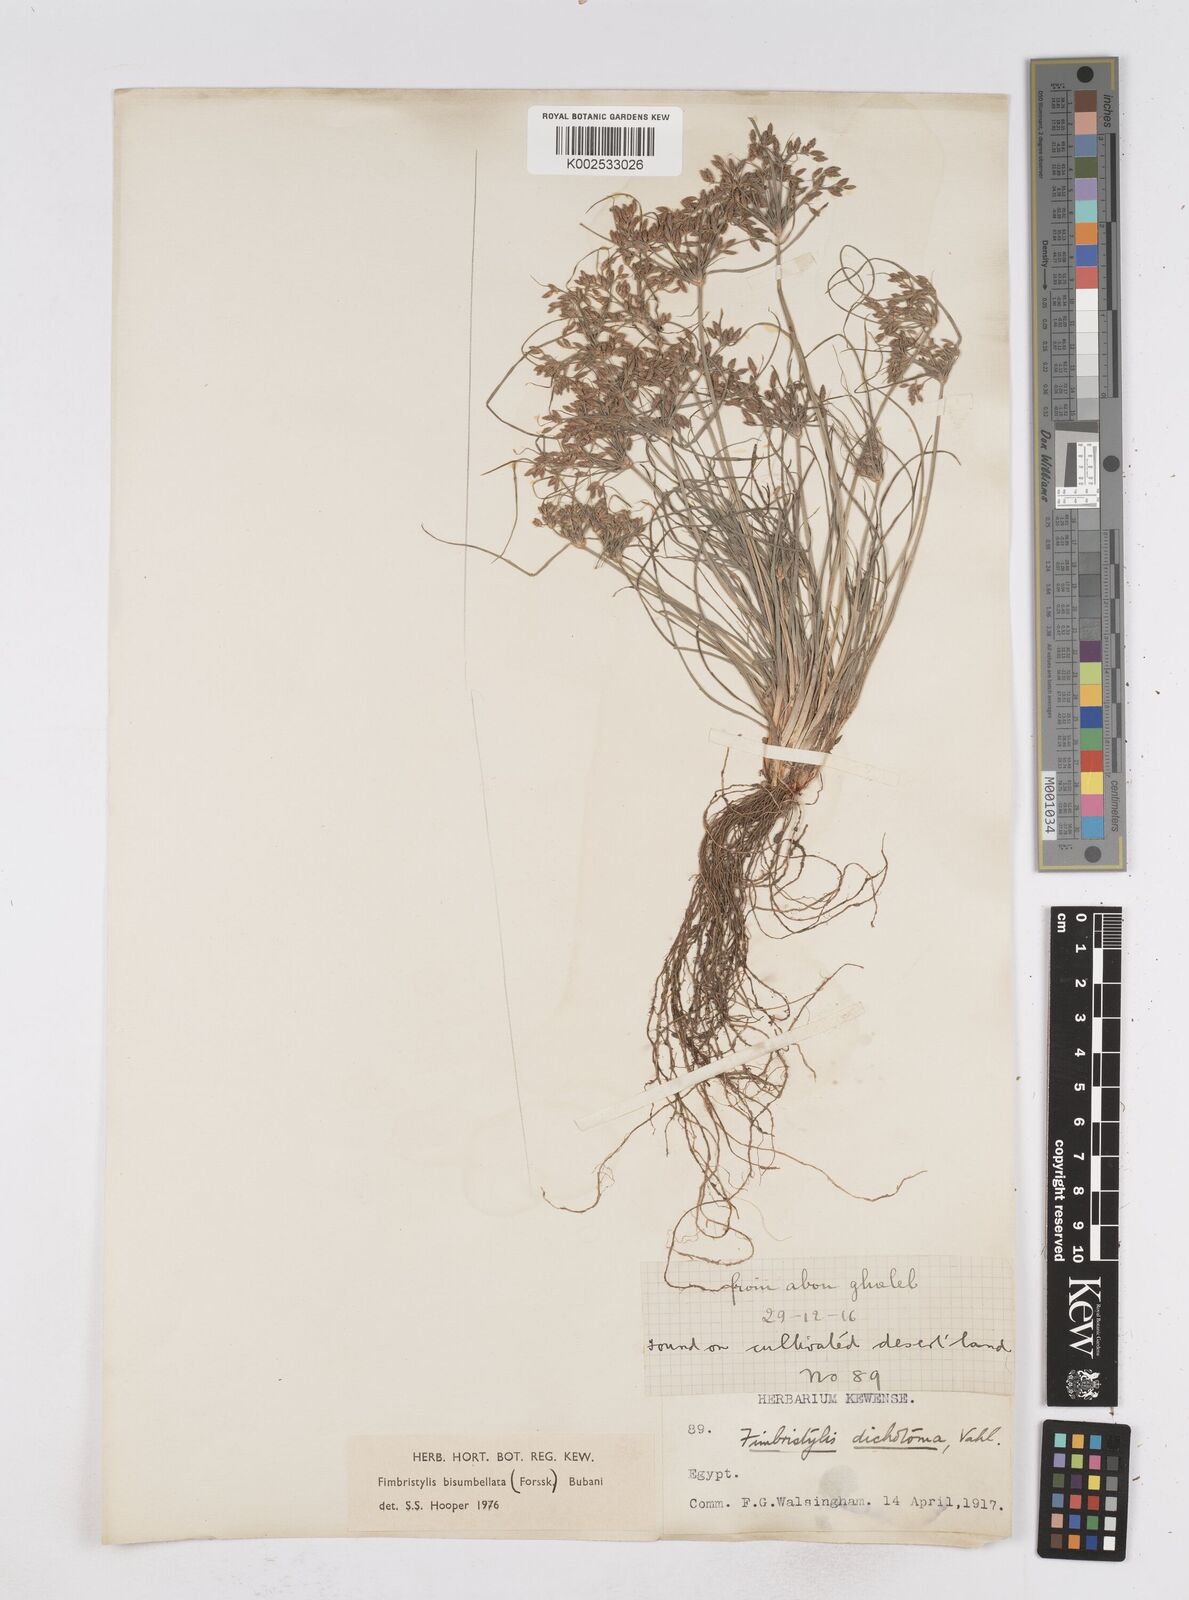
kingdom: Plantae
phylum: Tracheophyta
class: Liliopsida
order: Poales
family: Cyperaceae
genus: Fimbristylis
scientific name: Fimbristylis bisumbellata
